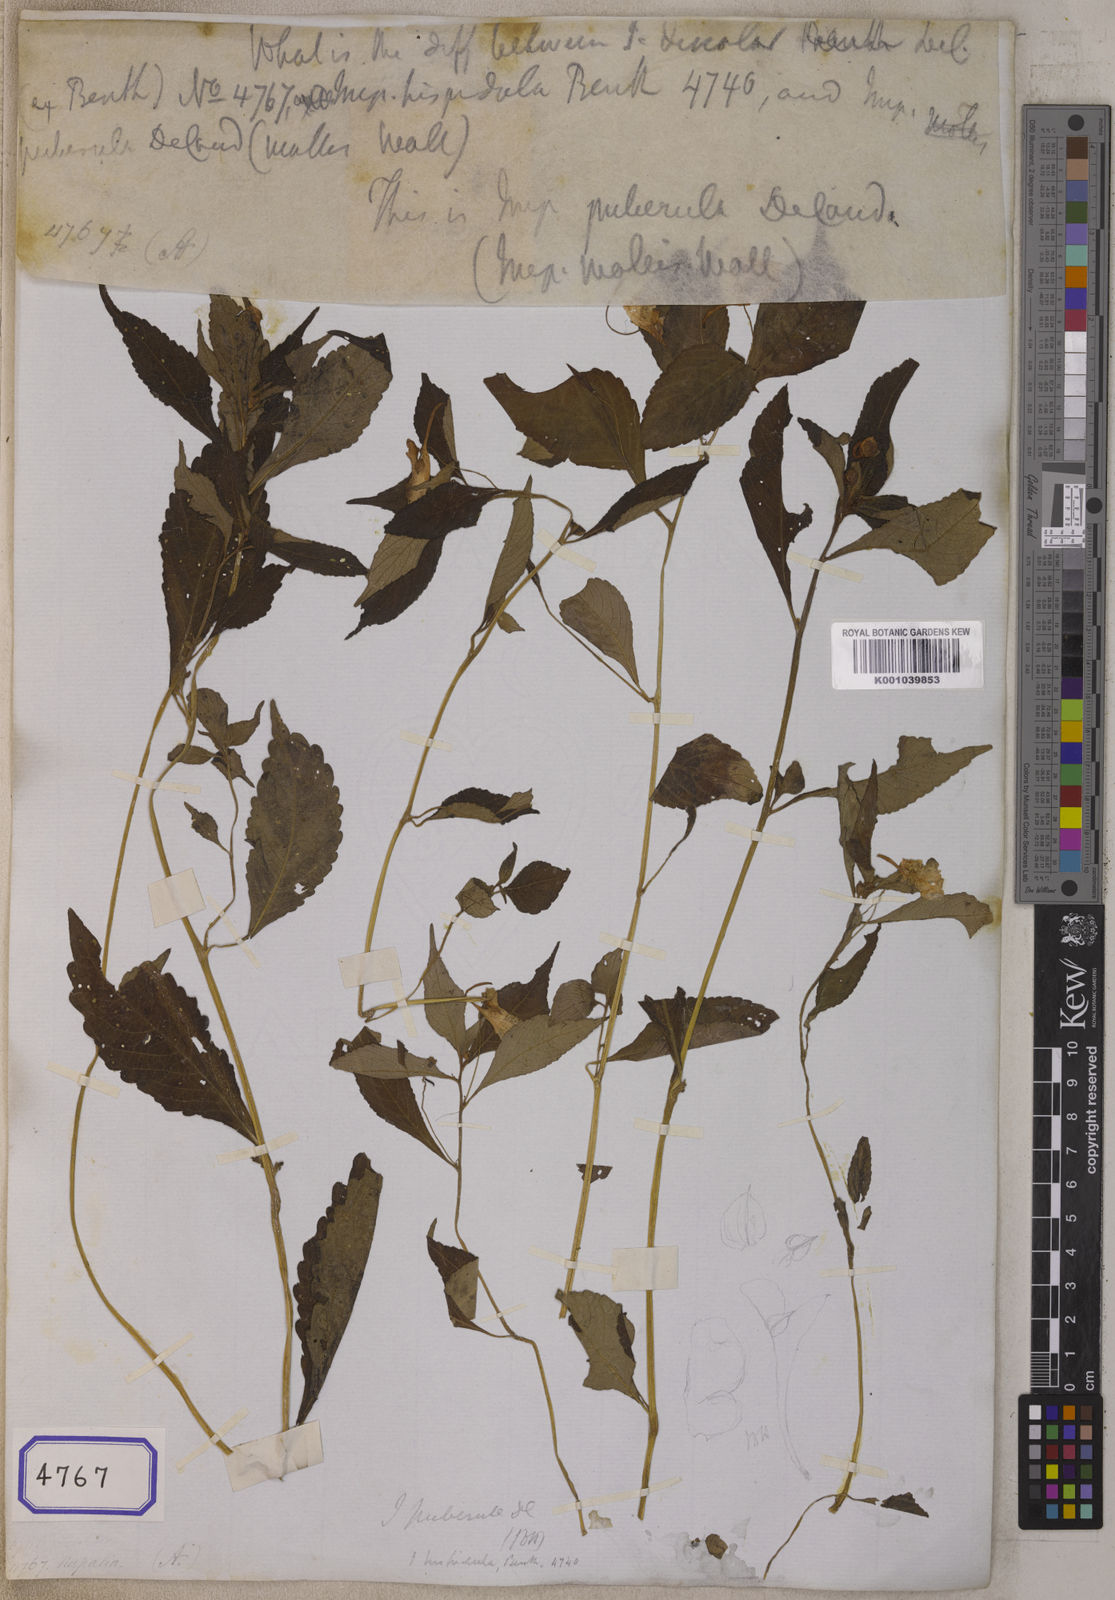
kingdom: Plantae
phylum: Tracheophyta
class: Magnoliopsida
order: Ericales
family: Balsaminaceae
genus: Impatiens
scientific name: Impatiens discolor
